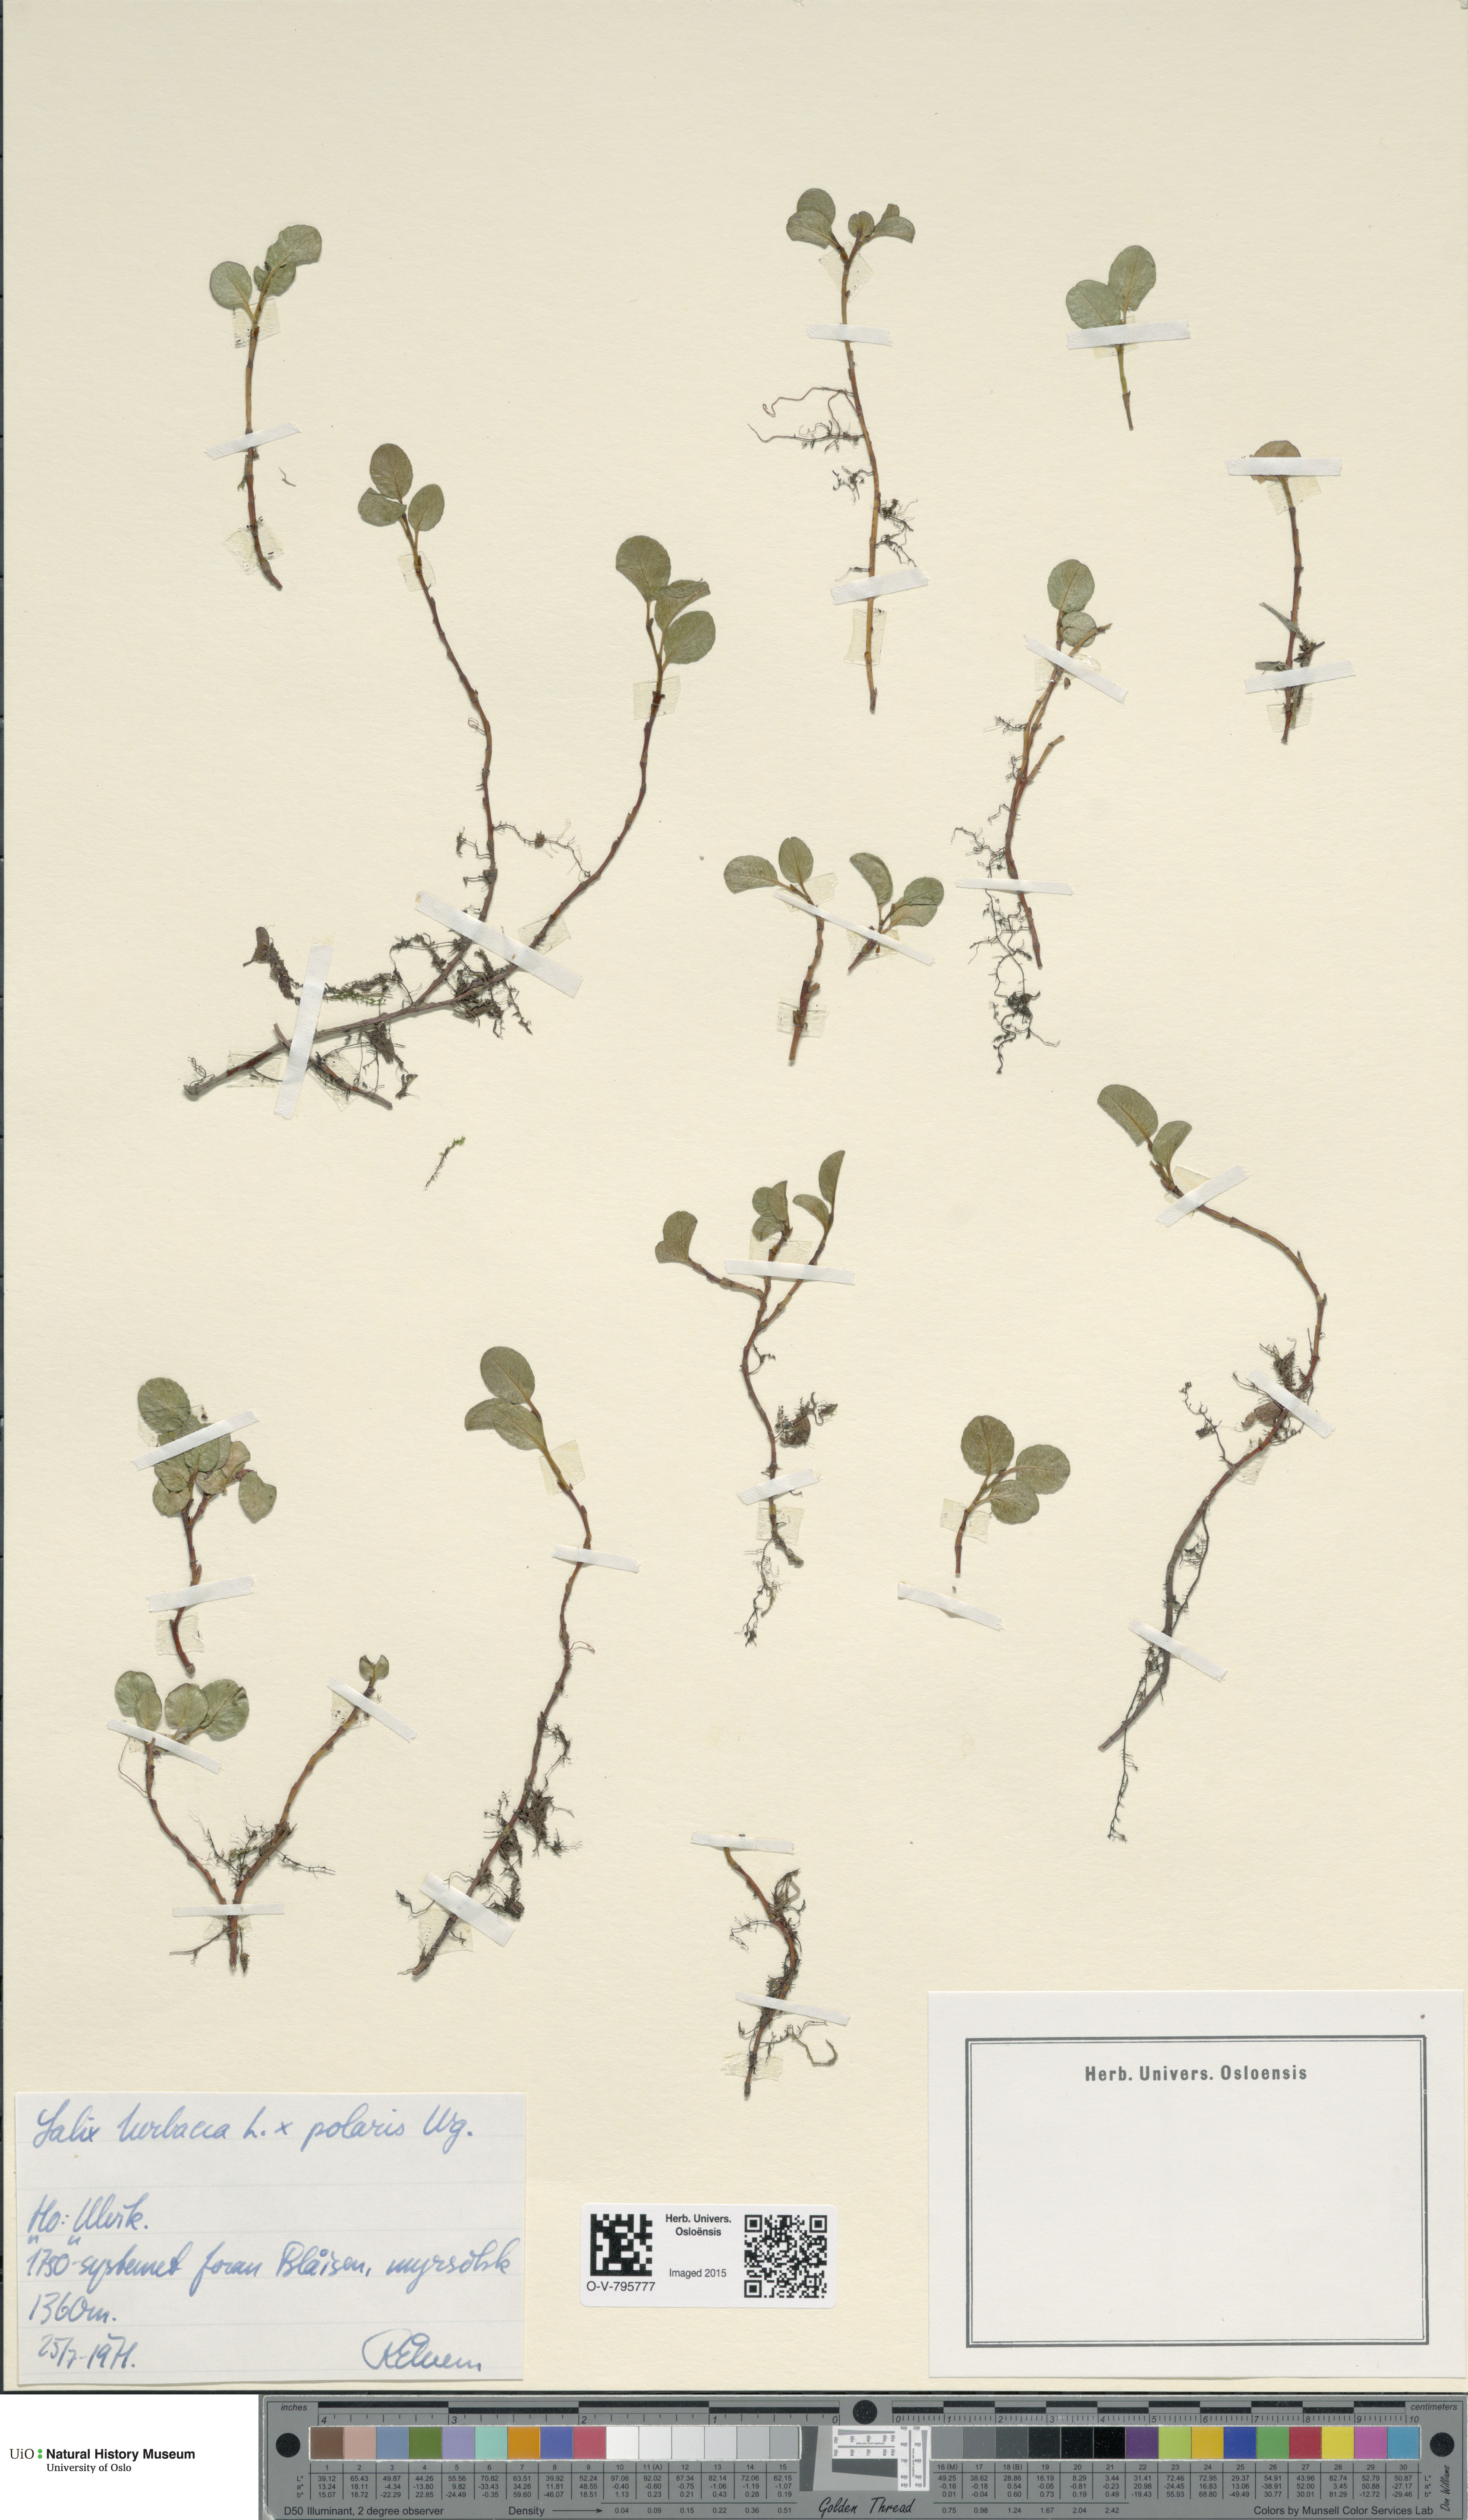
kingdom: Plantae
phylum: Tracheophyta
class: Magnoliopsida
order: Malpighiales
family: Salicaceae
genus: Salix
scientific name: Salix
